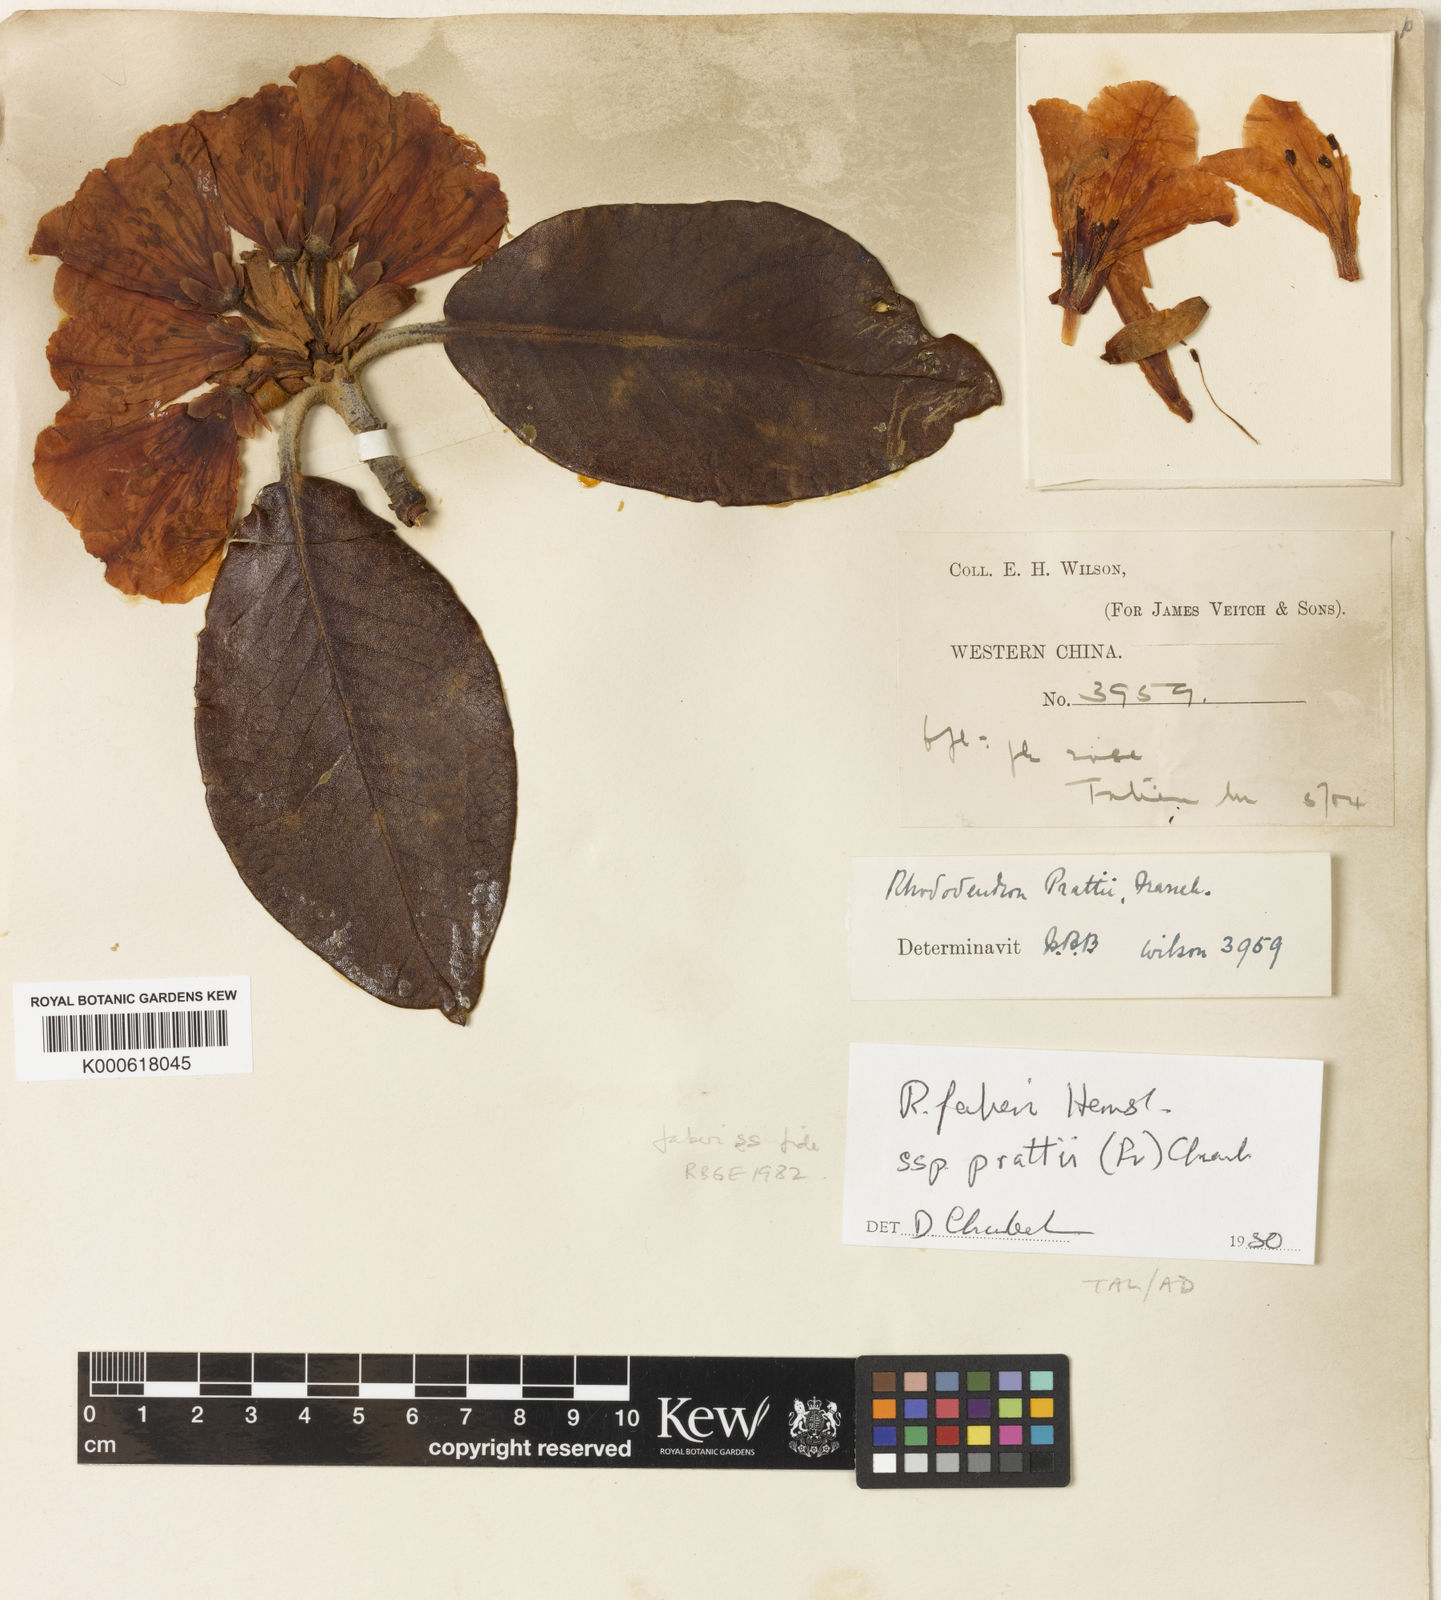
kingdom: Plantae
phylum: Tracheophyta
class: Magnoliopsida
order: Ericales
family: Ericaceae
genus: Rhododendron
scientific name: Rhododendron prattii
